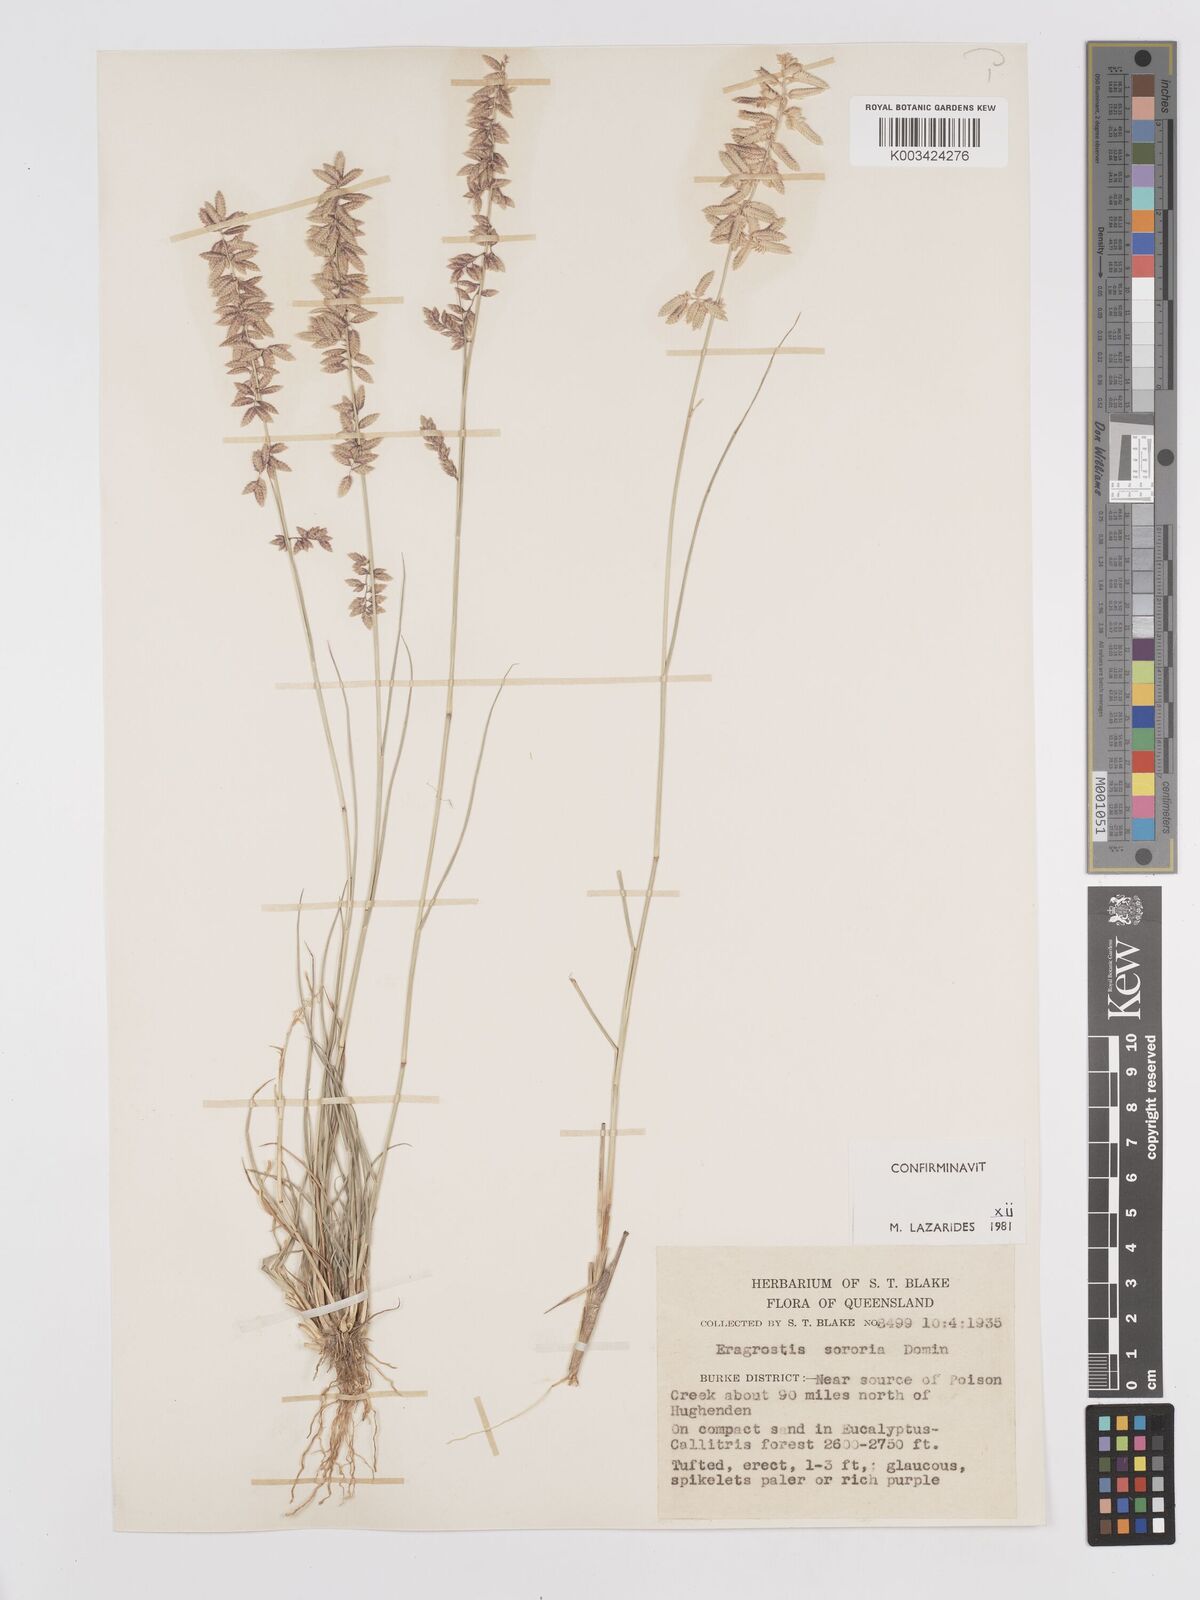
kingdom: Plantae
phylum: Tracheophyta
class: Liliopsida
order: Poales
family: Poaceae
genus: Eragrostis
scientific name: Eragrostis sororia
